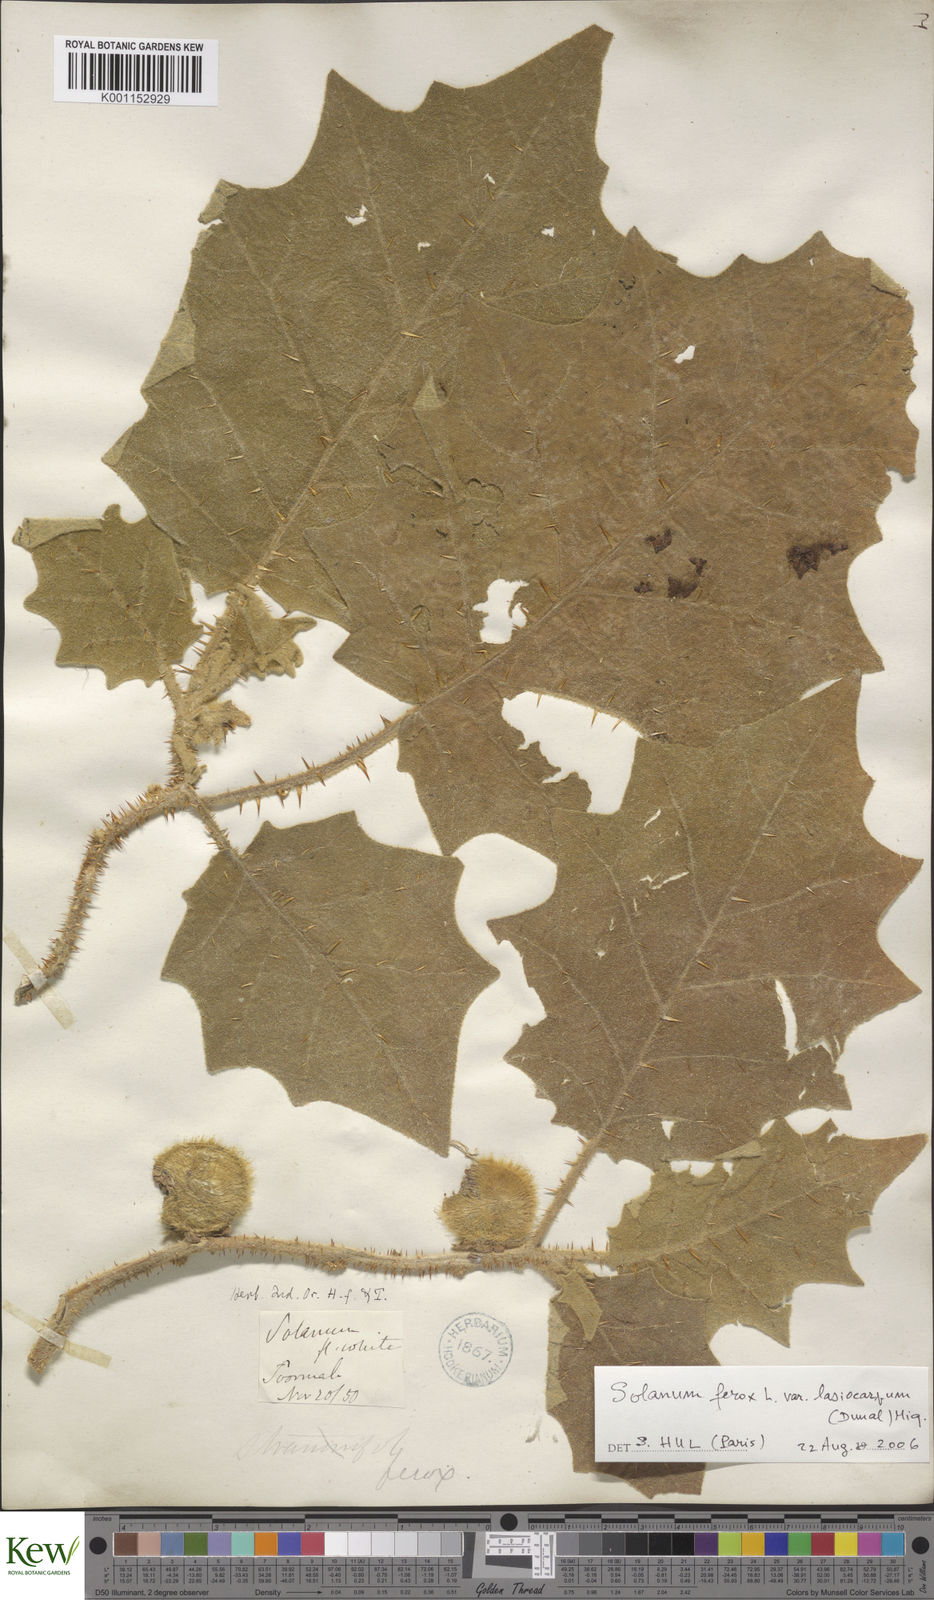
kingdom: Plantae
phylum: Tracheophyta
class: Magnoliopsida
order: Solanales
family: Solanaceae
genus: Solanum
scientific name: Solanum
